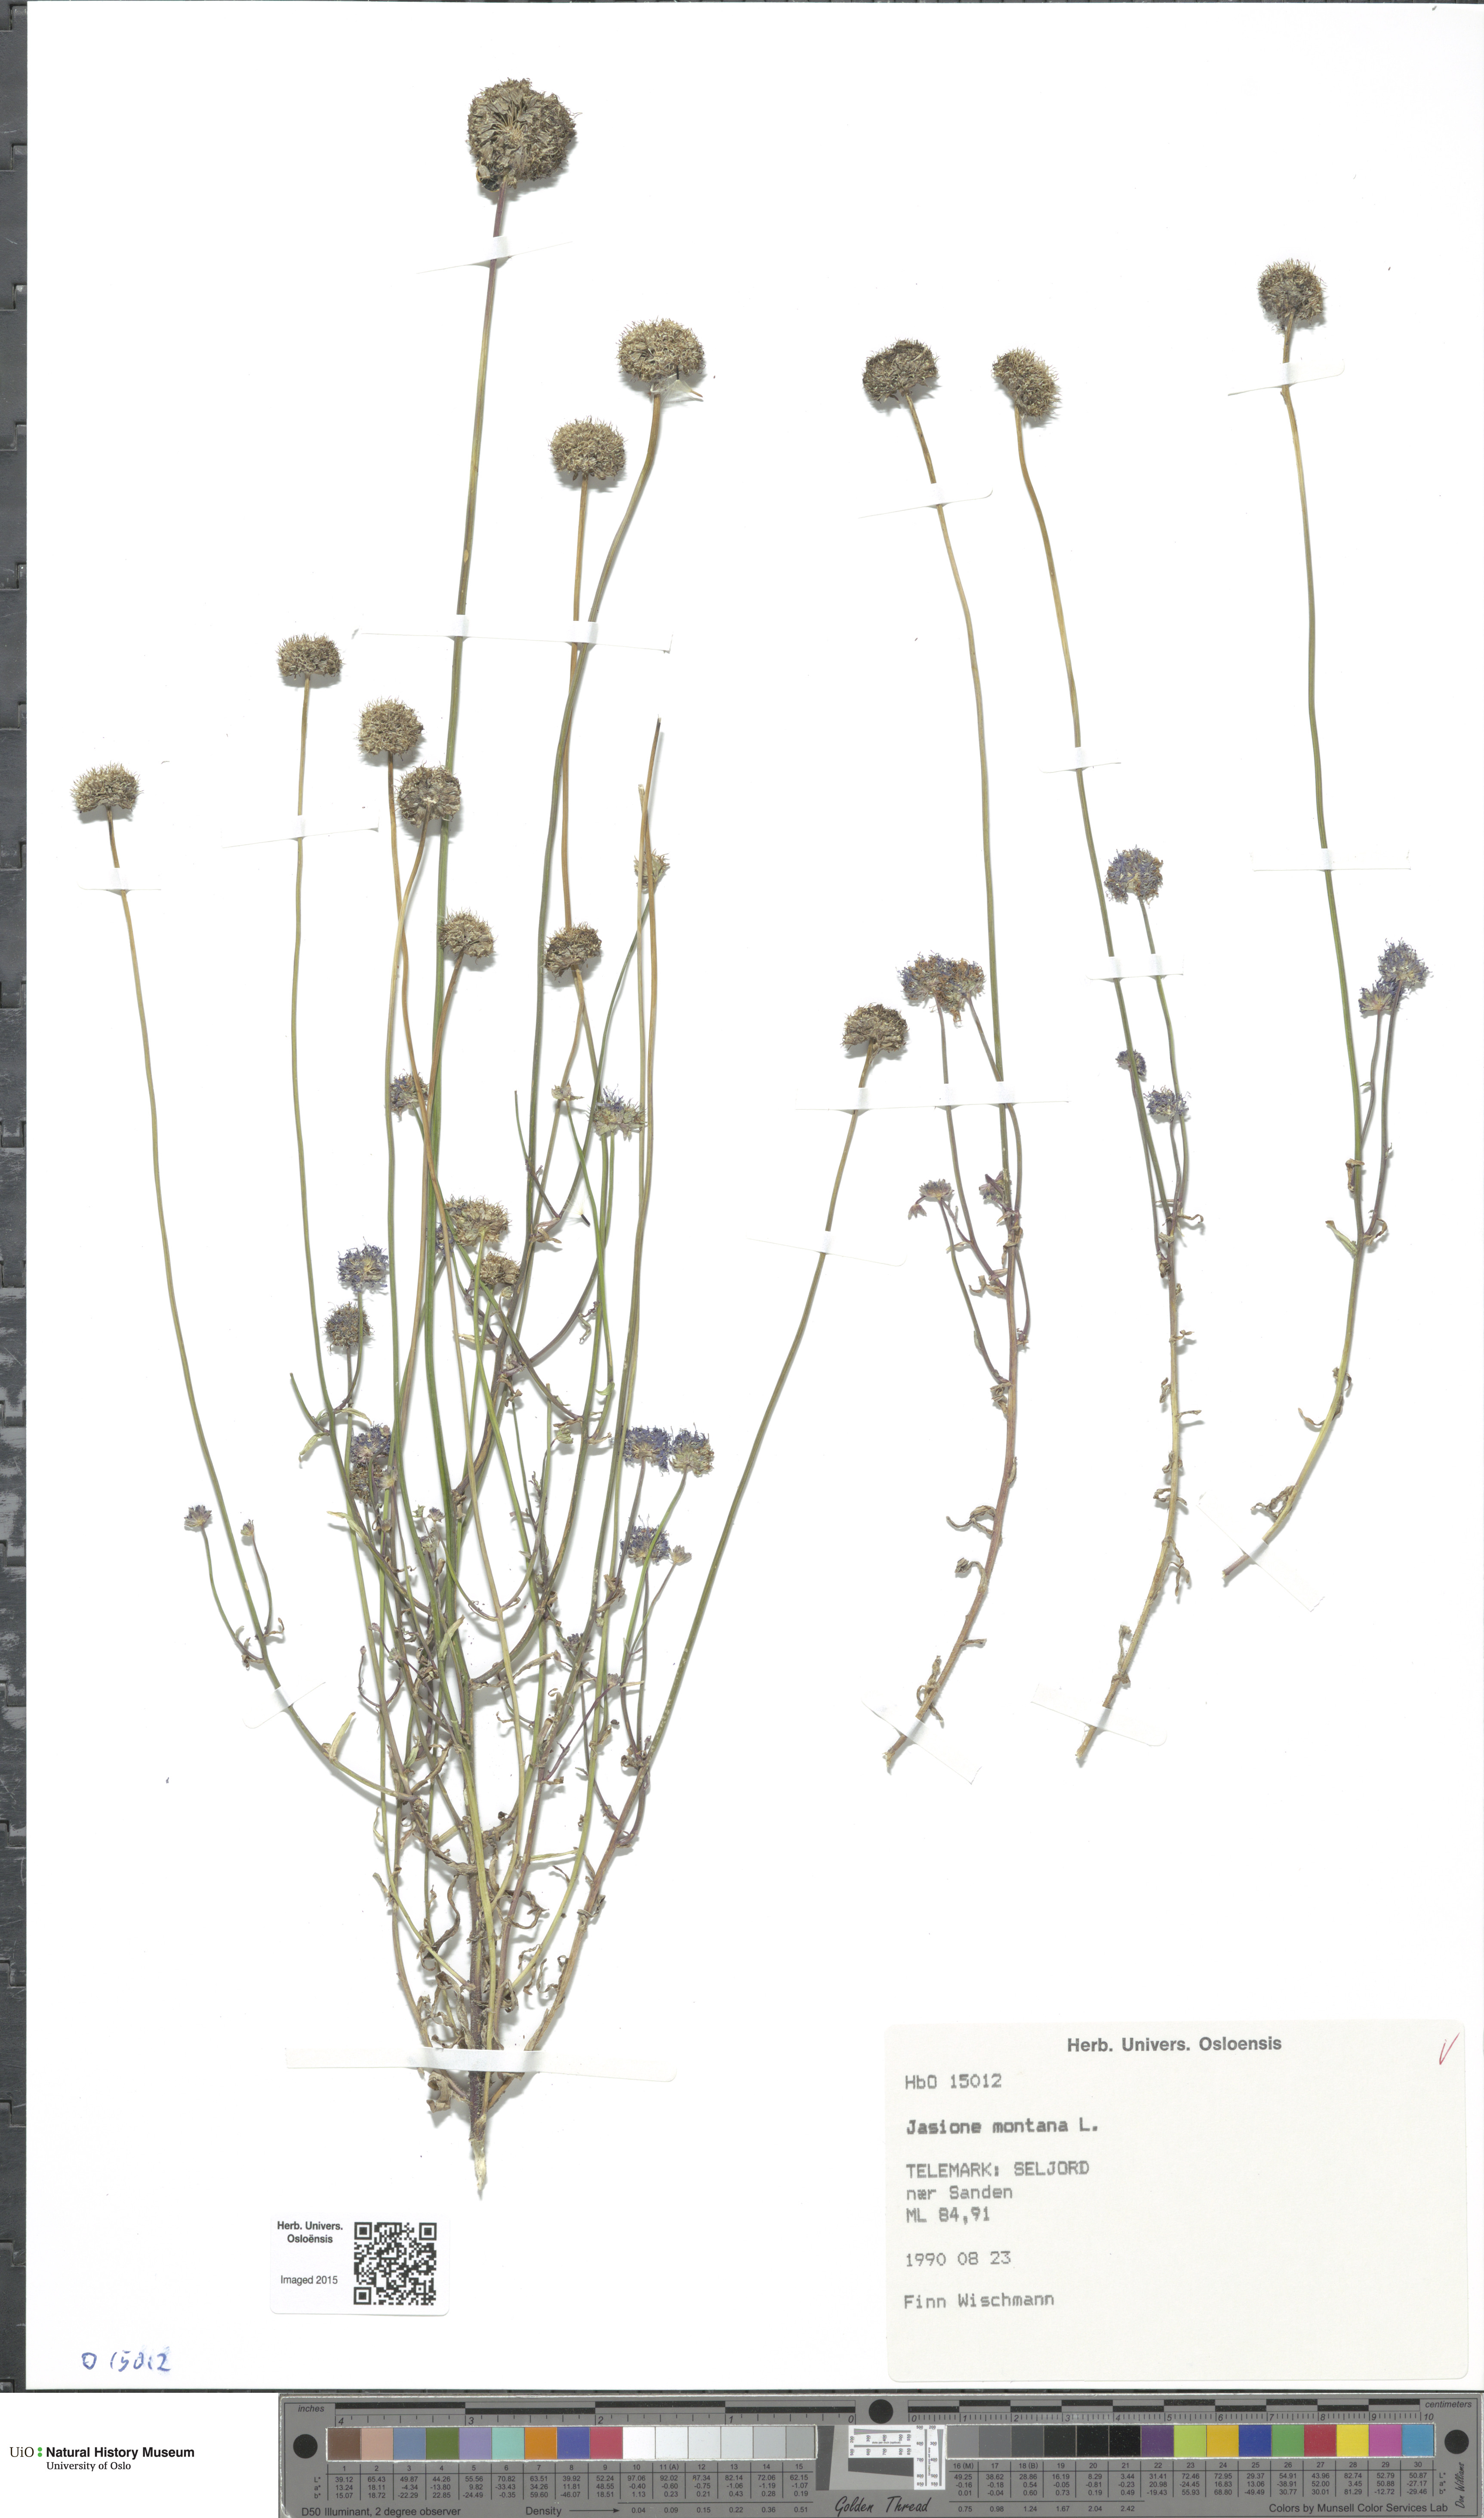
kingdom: Plantae
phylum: Tracheophyta
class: Magnoliopsida
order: Asterales
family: Campanulaceae
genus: Jasione
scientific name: Jasione montana
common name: Sheep's-bit
